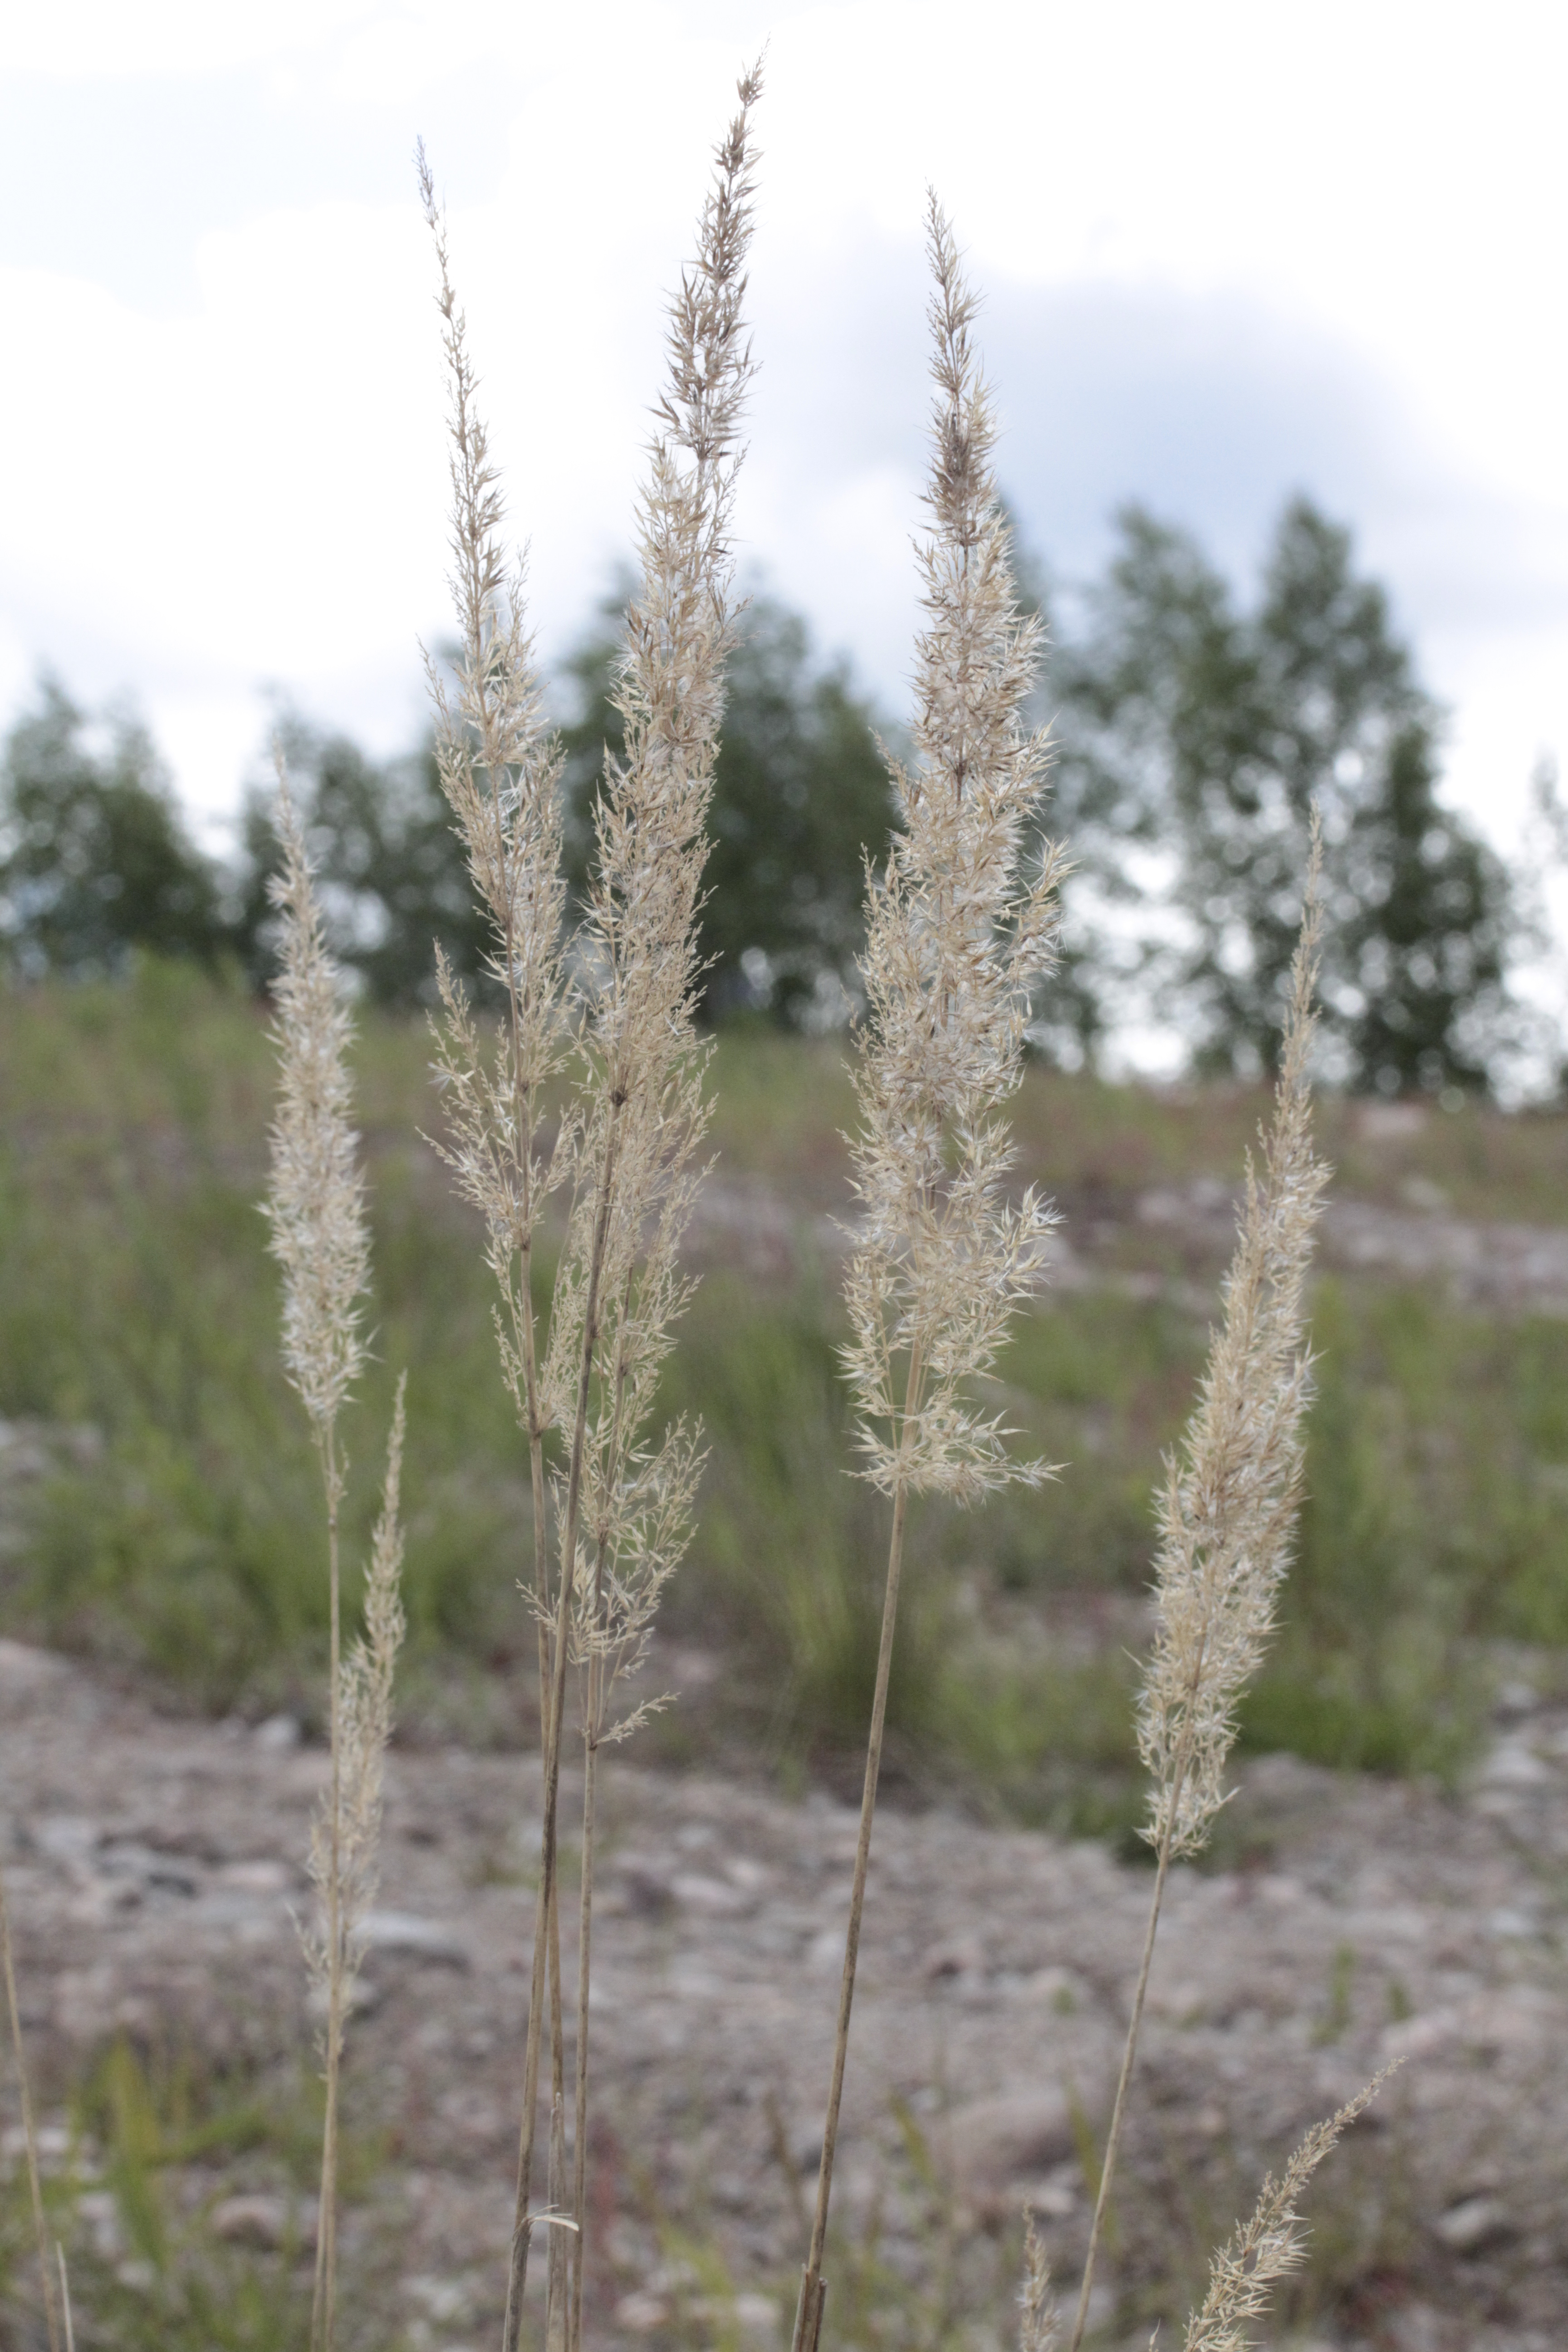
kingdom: Plantae
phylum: Tracheophyta
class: Magnoliopsida
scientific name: Magnoliopsida
